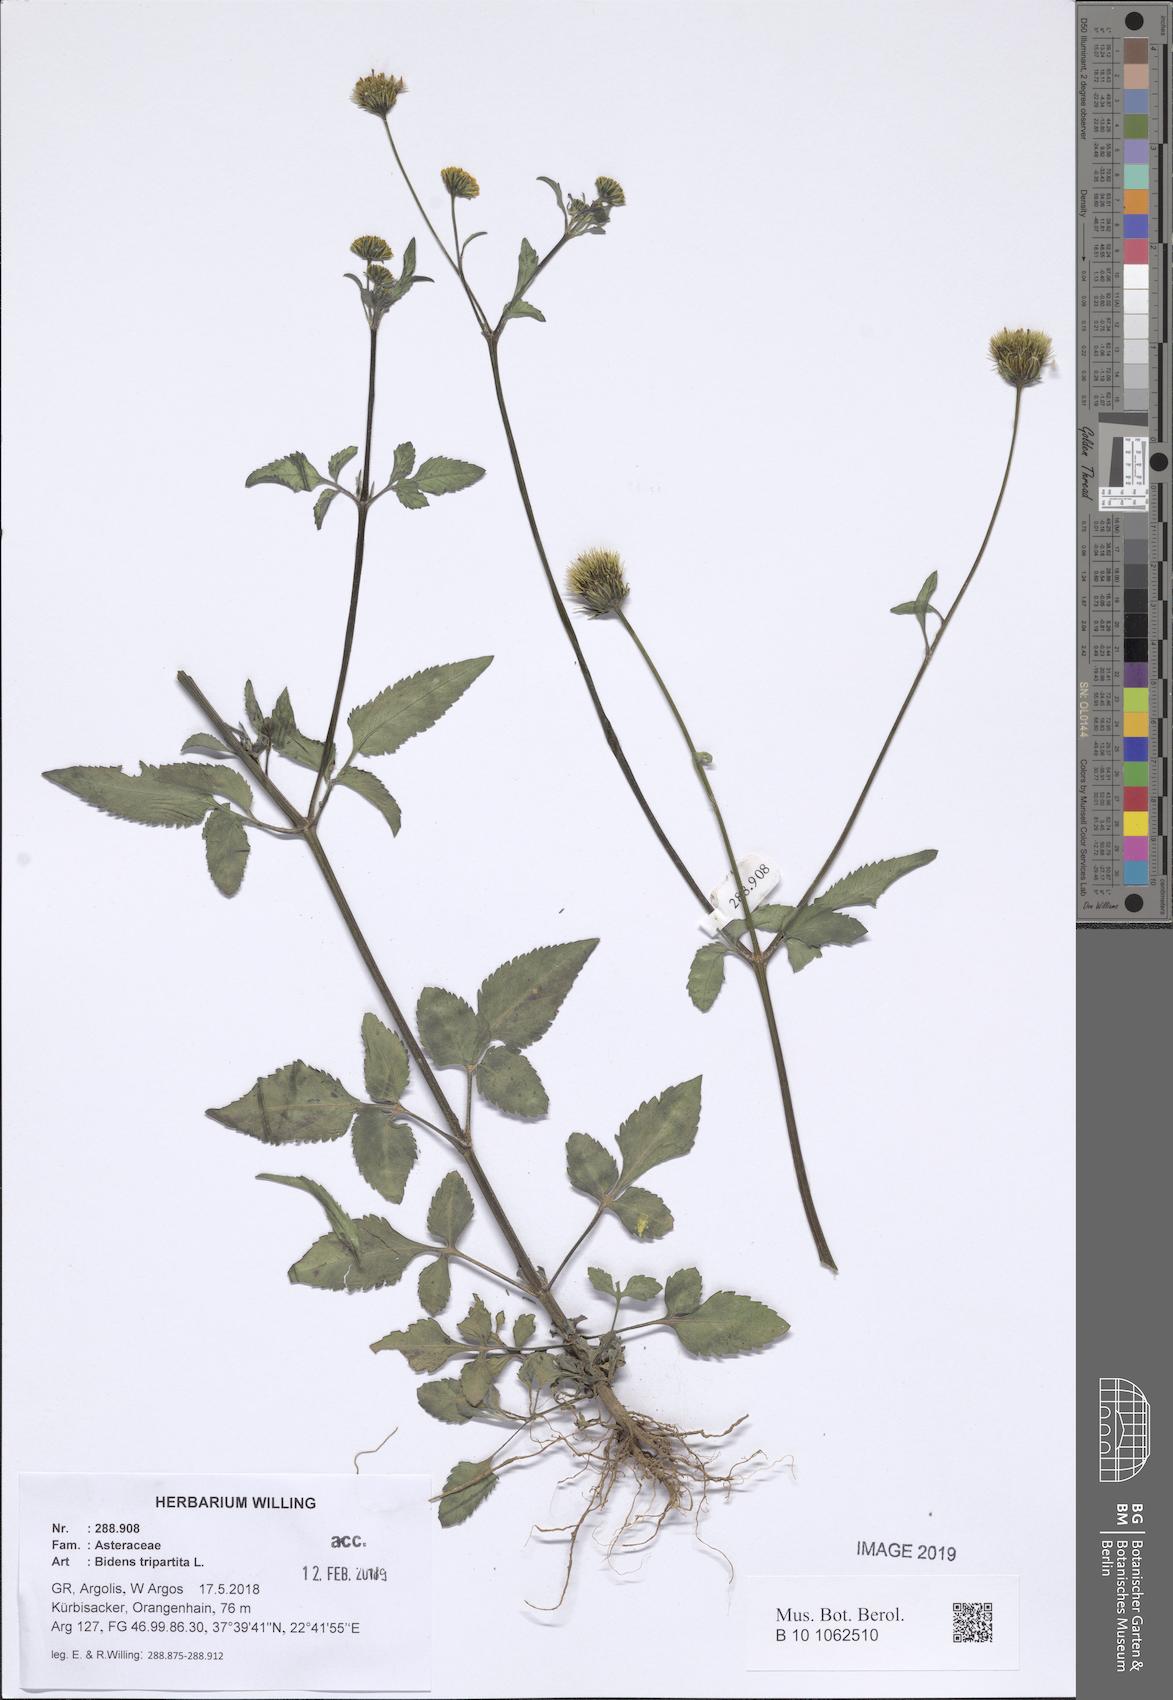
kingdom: Plantae
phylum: Tracheophyta
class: Magnoliopsida
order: Asterales
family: Asteraceae
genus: Bidens
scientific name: Bidens tripartita
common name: Trifid bur-marigold
